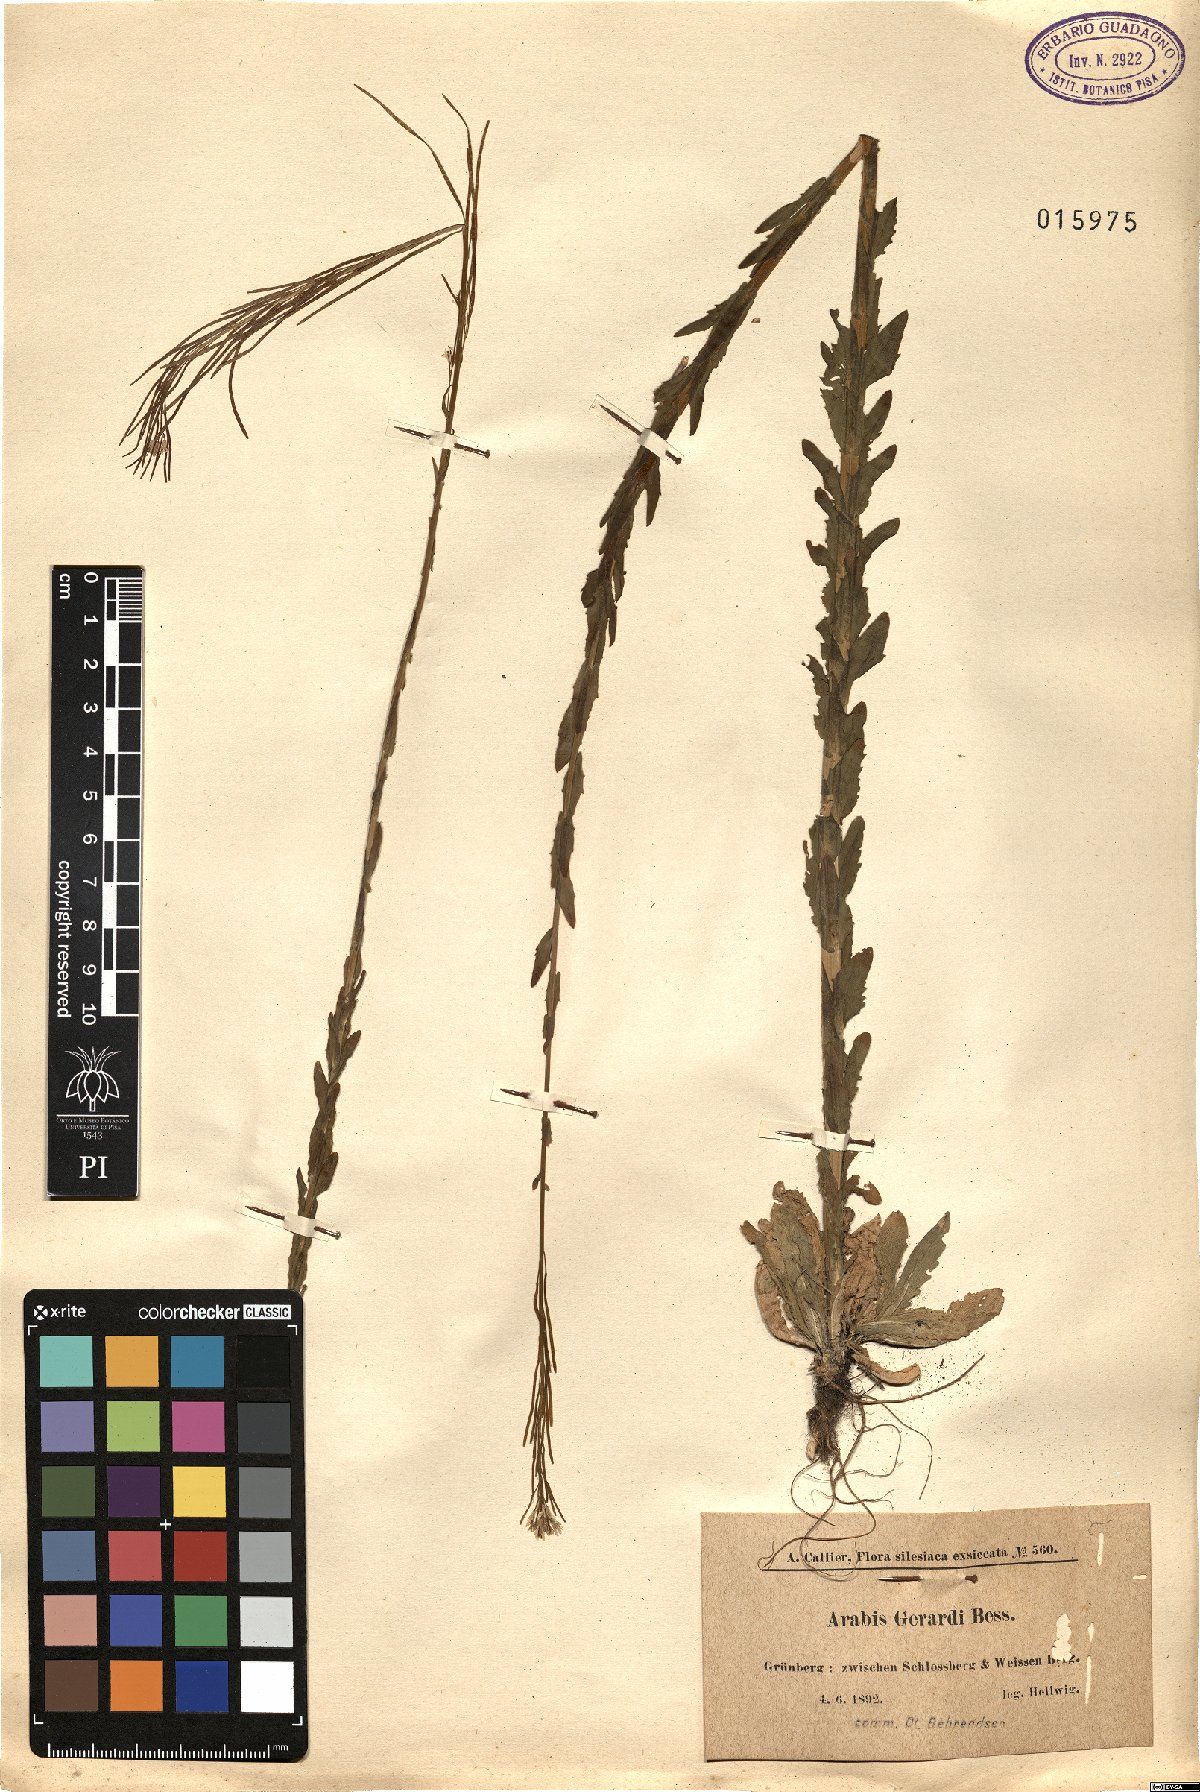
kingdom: Plantae
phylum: Tracheophyta
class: Magnoliopsida
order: Brassicales
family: Brassicaceae
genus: Arabis
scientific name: Arabis planisiliqua
